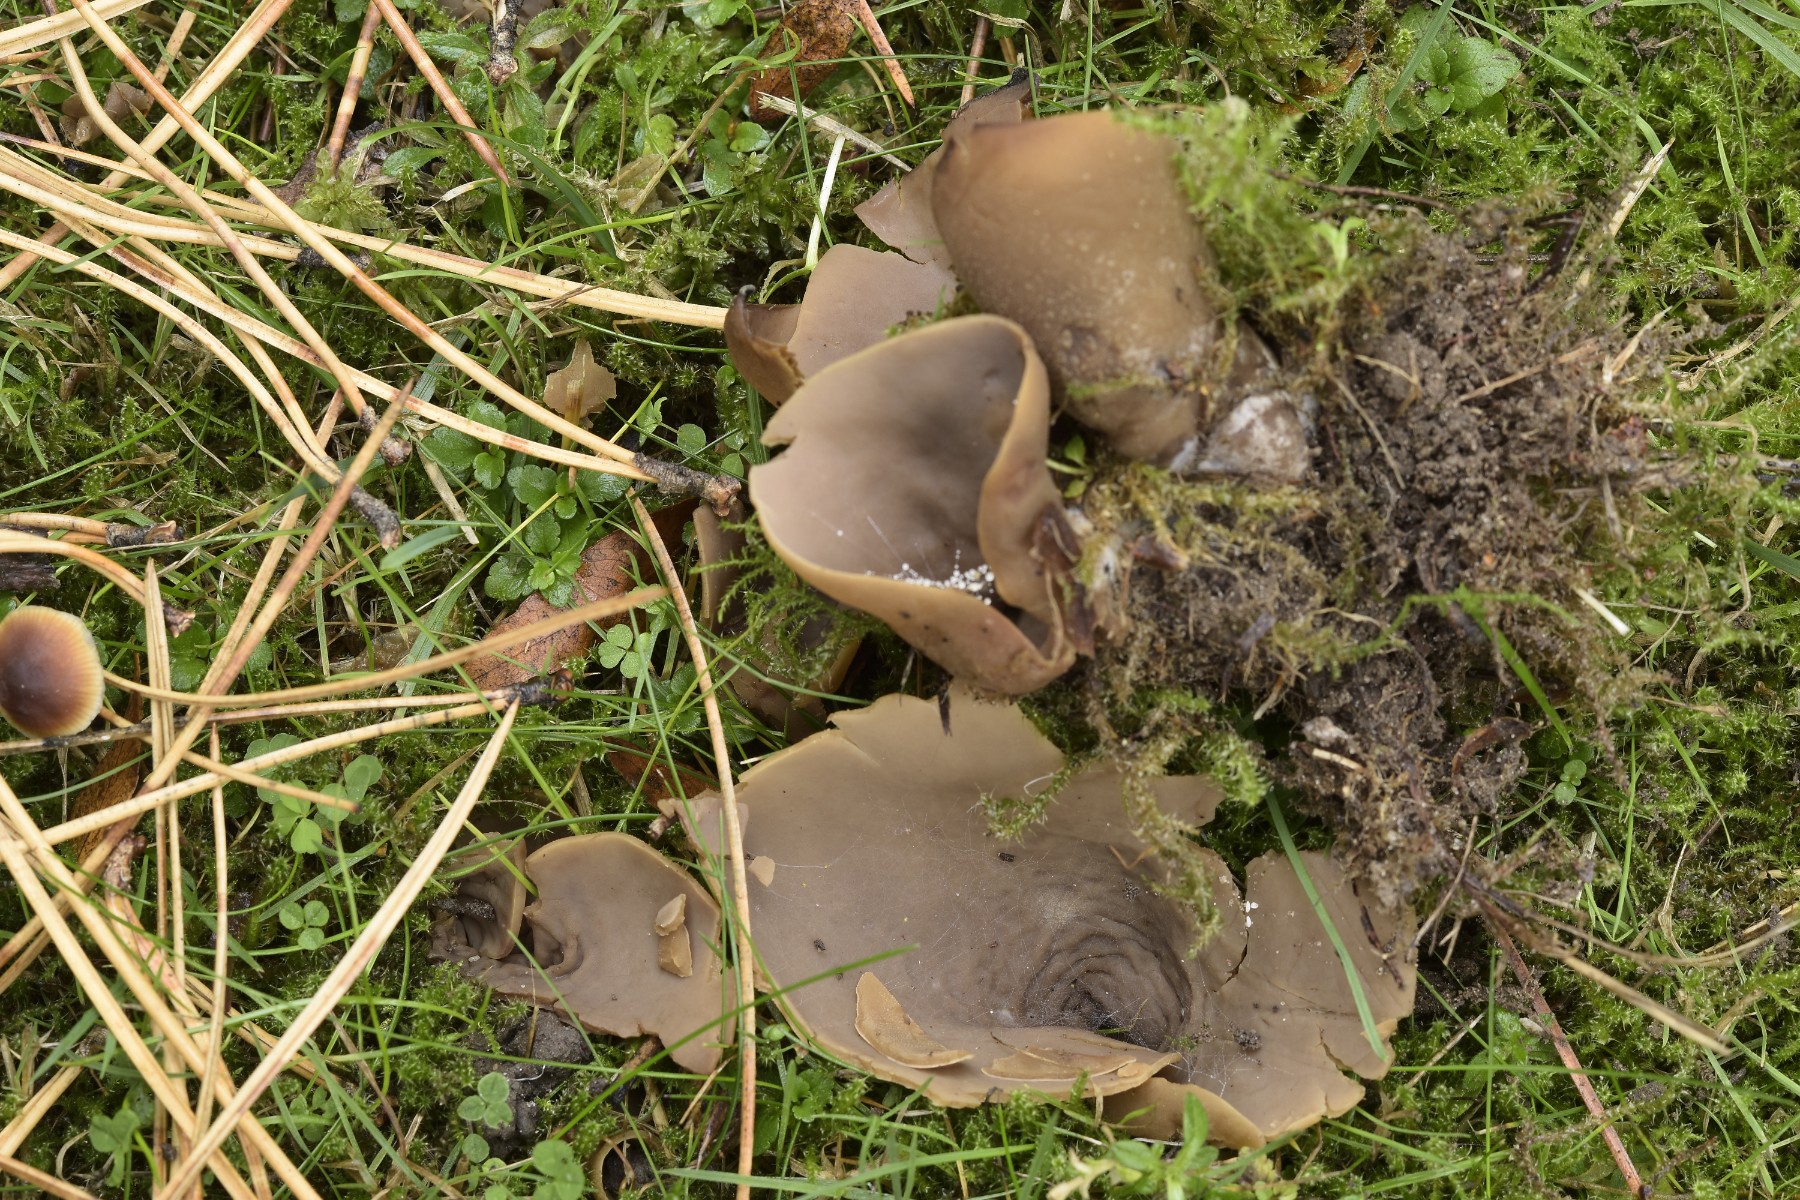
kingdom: Fungi
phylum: Ascomycota
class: Pezizomycetes
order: Pezizales
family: Otideaceae
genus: Otidea
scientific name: Otidea
